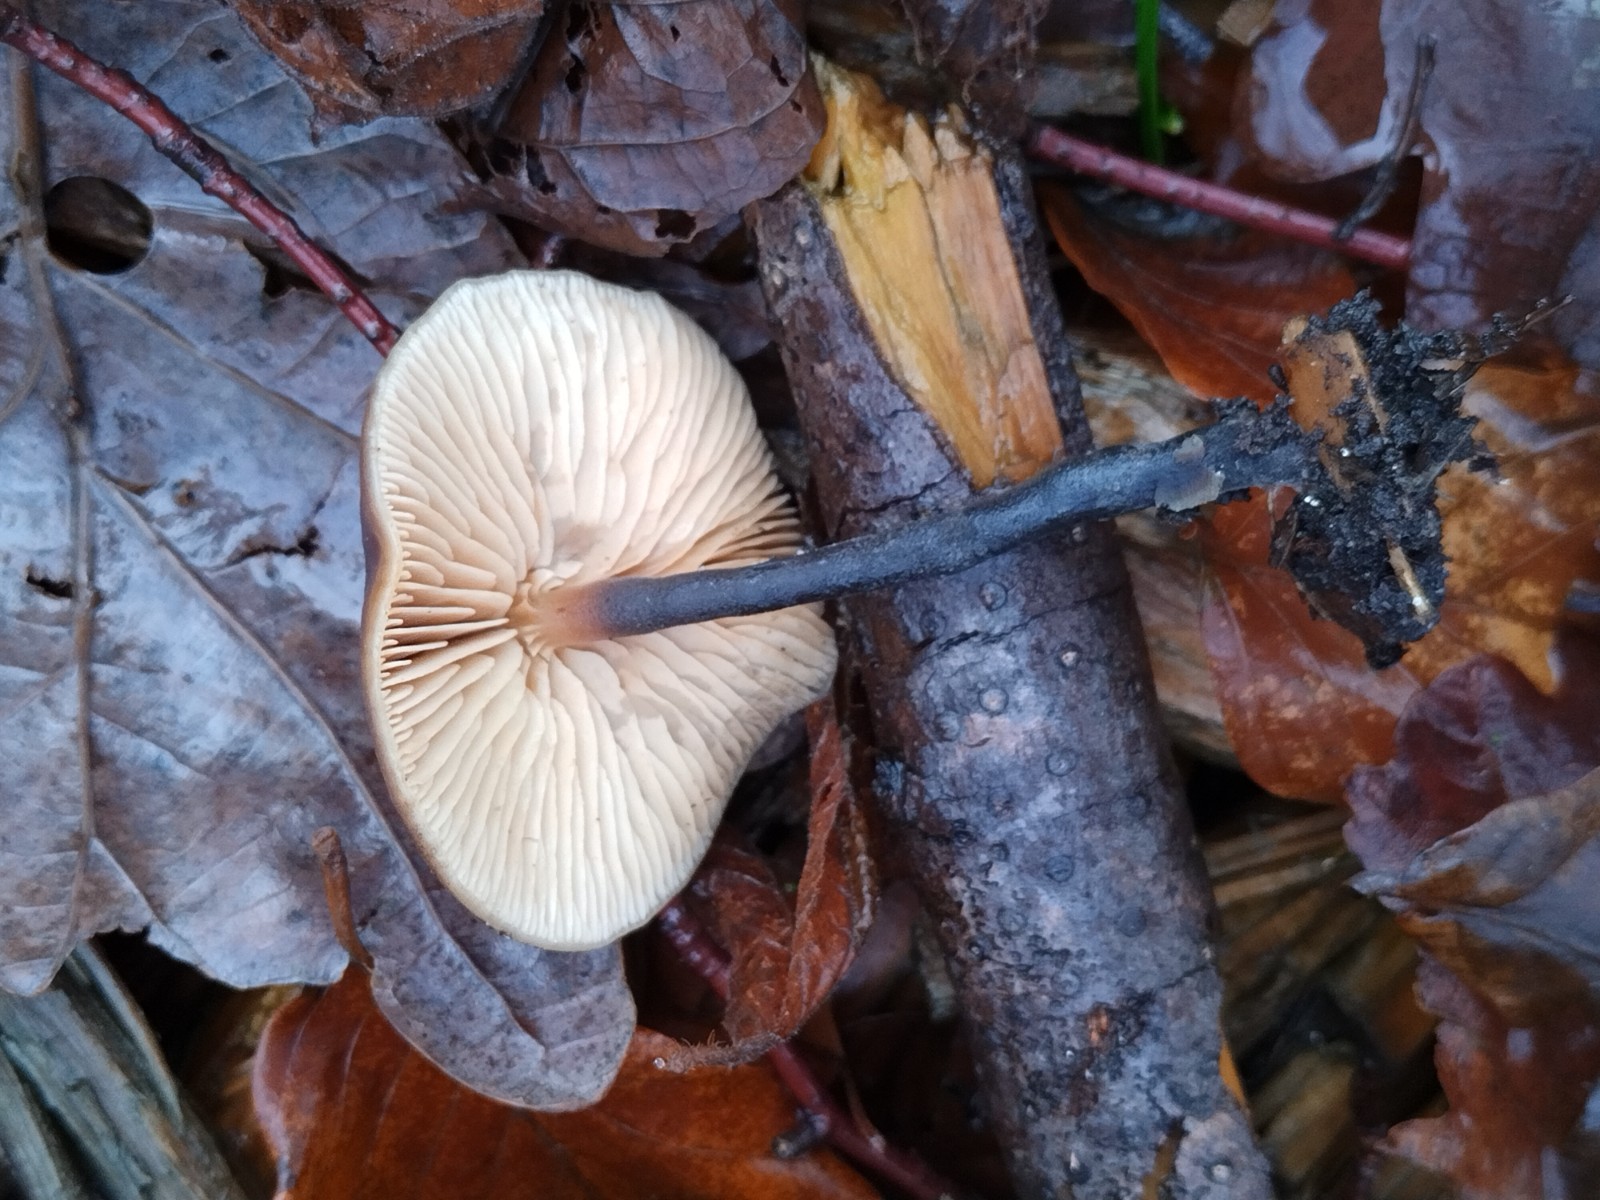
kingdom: Fungi
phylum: Basidiomycota
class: Agaricomycetes
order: Agaricales
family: Macrocystidiaceae
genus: Macrocystidia
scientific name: Macrocystidia cucumis
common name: agurkehat
